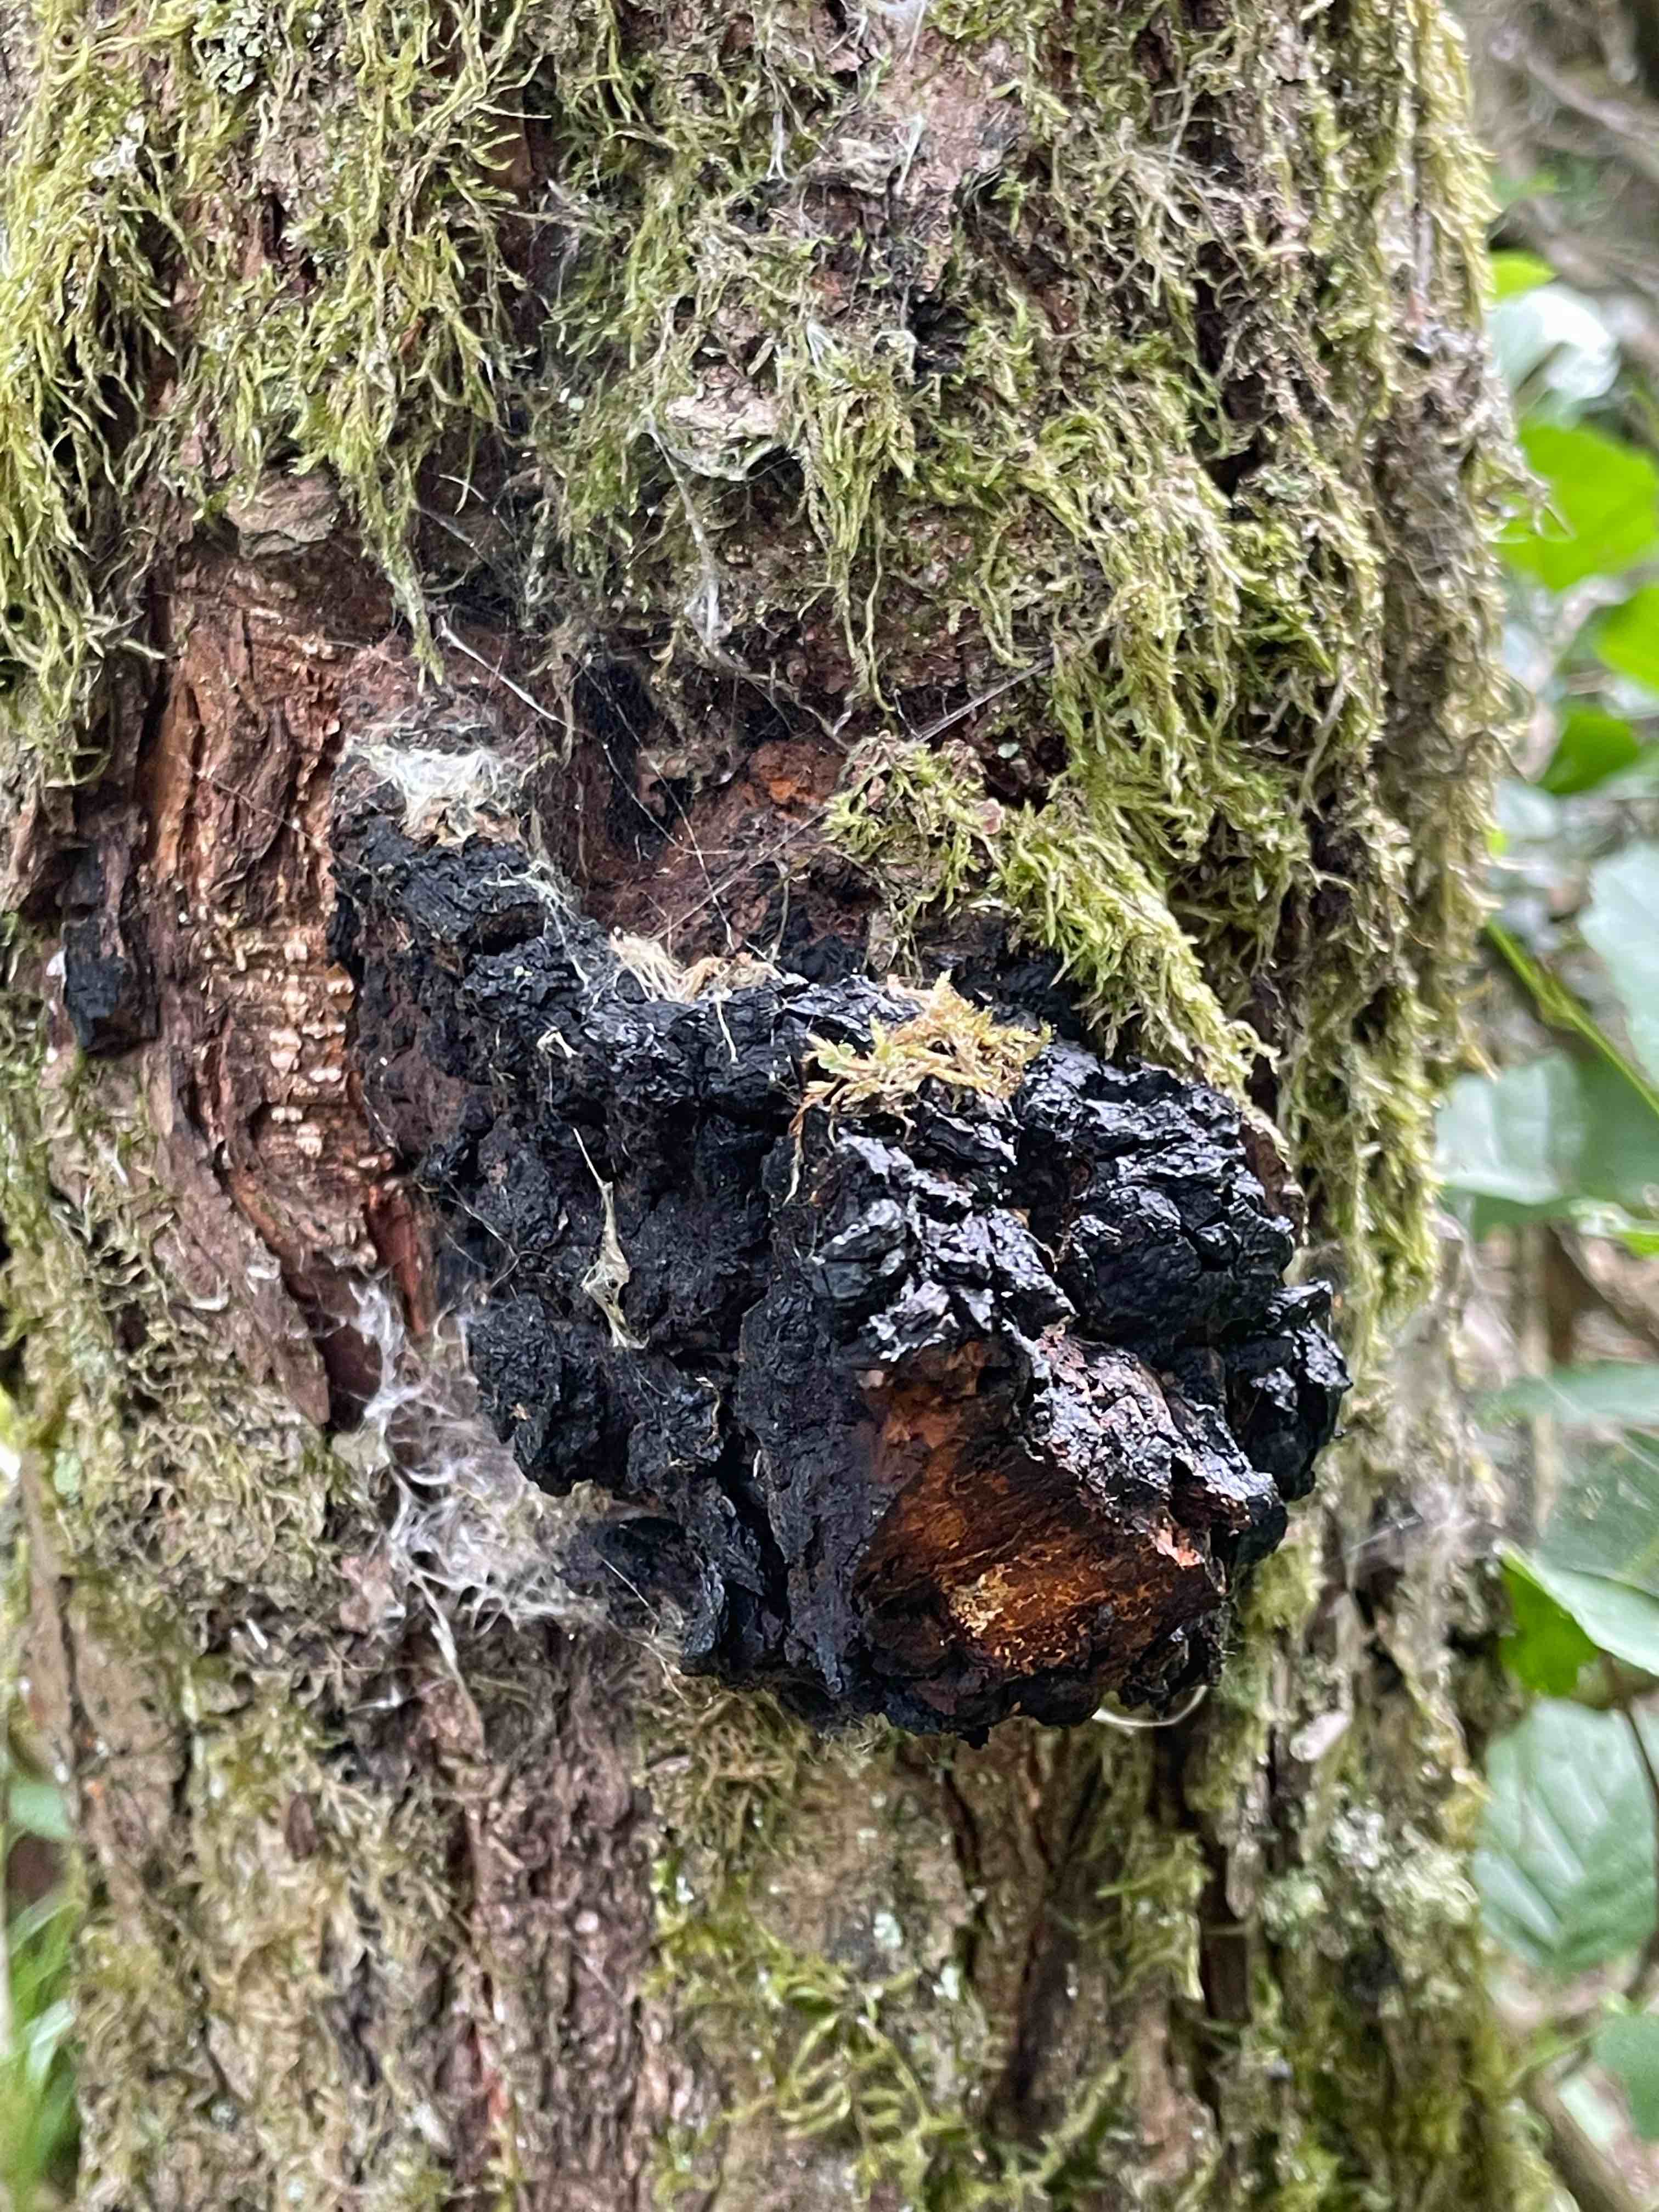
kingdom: Fungi
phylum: Basidiomycota
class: Agaricomycetes
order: Hymenochaetales
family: Hymenochaetaceae
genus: Inonotus
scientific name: Inonotus obliquus
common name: birke-spejlporesvamp
